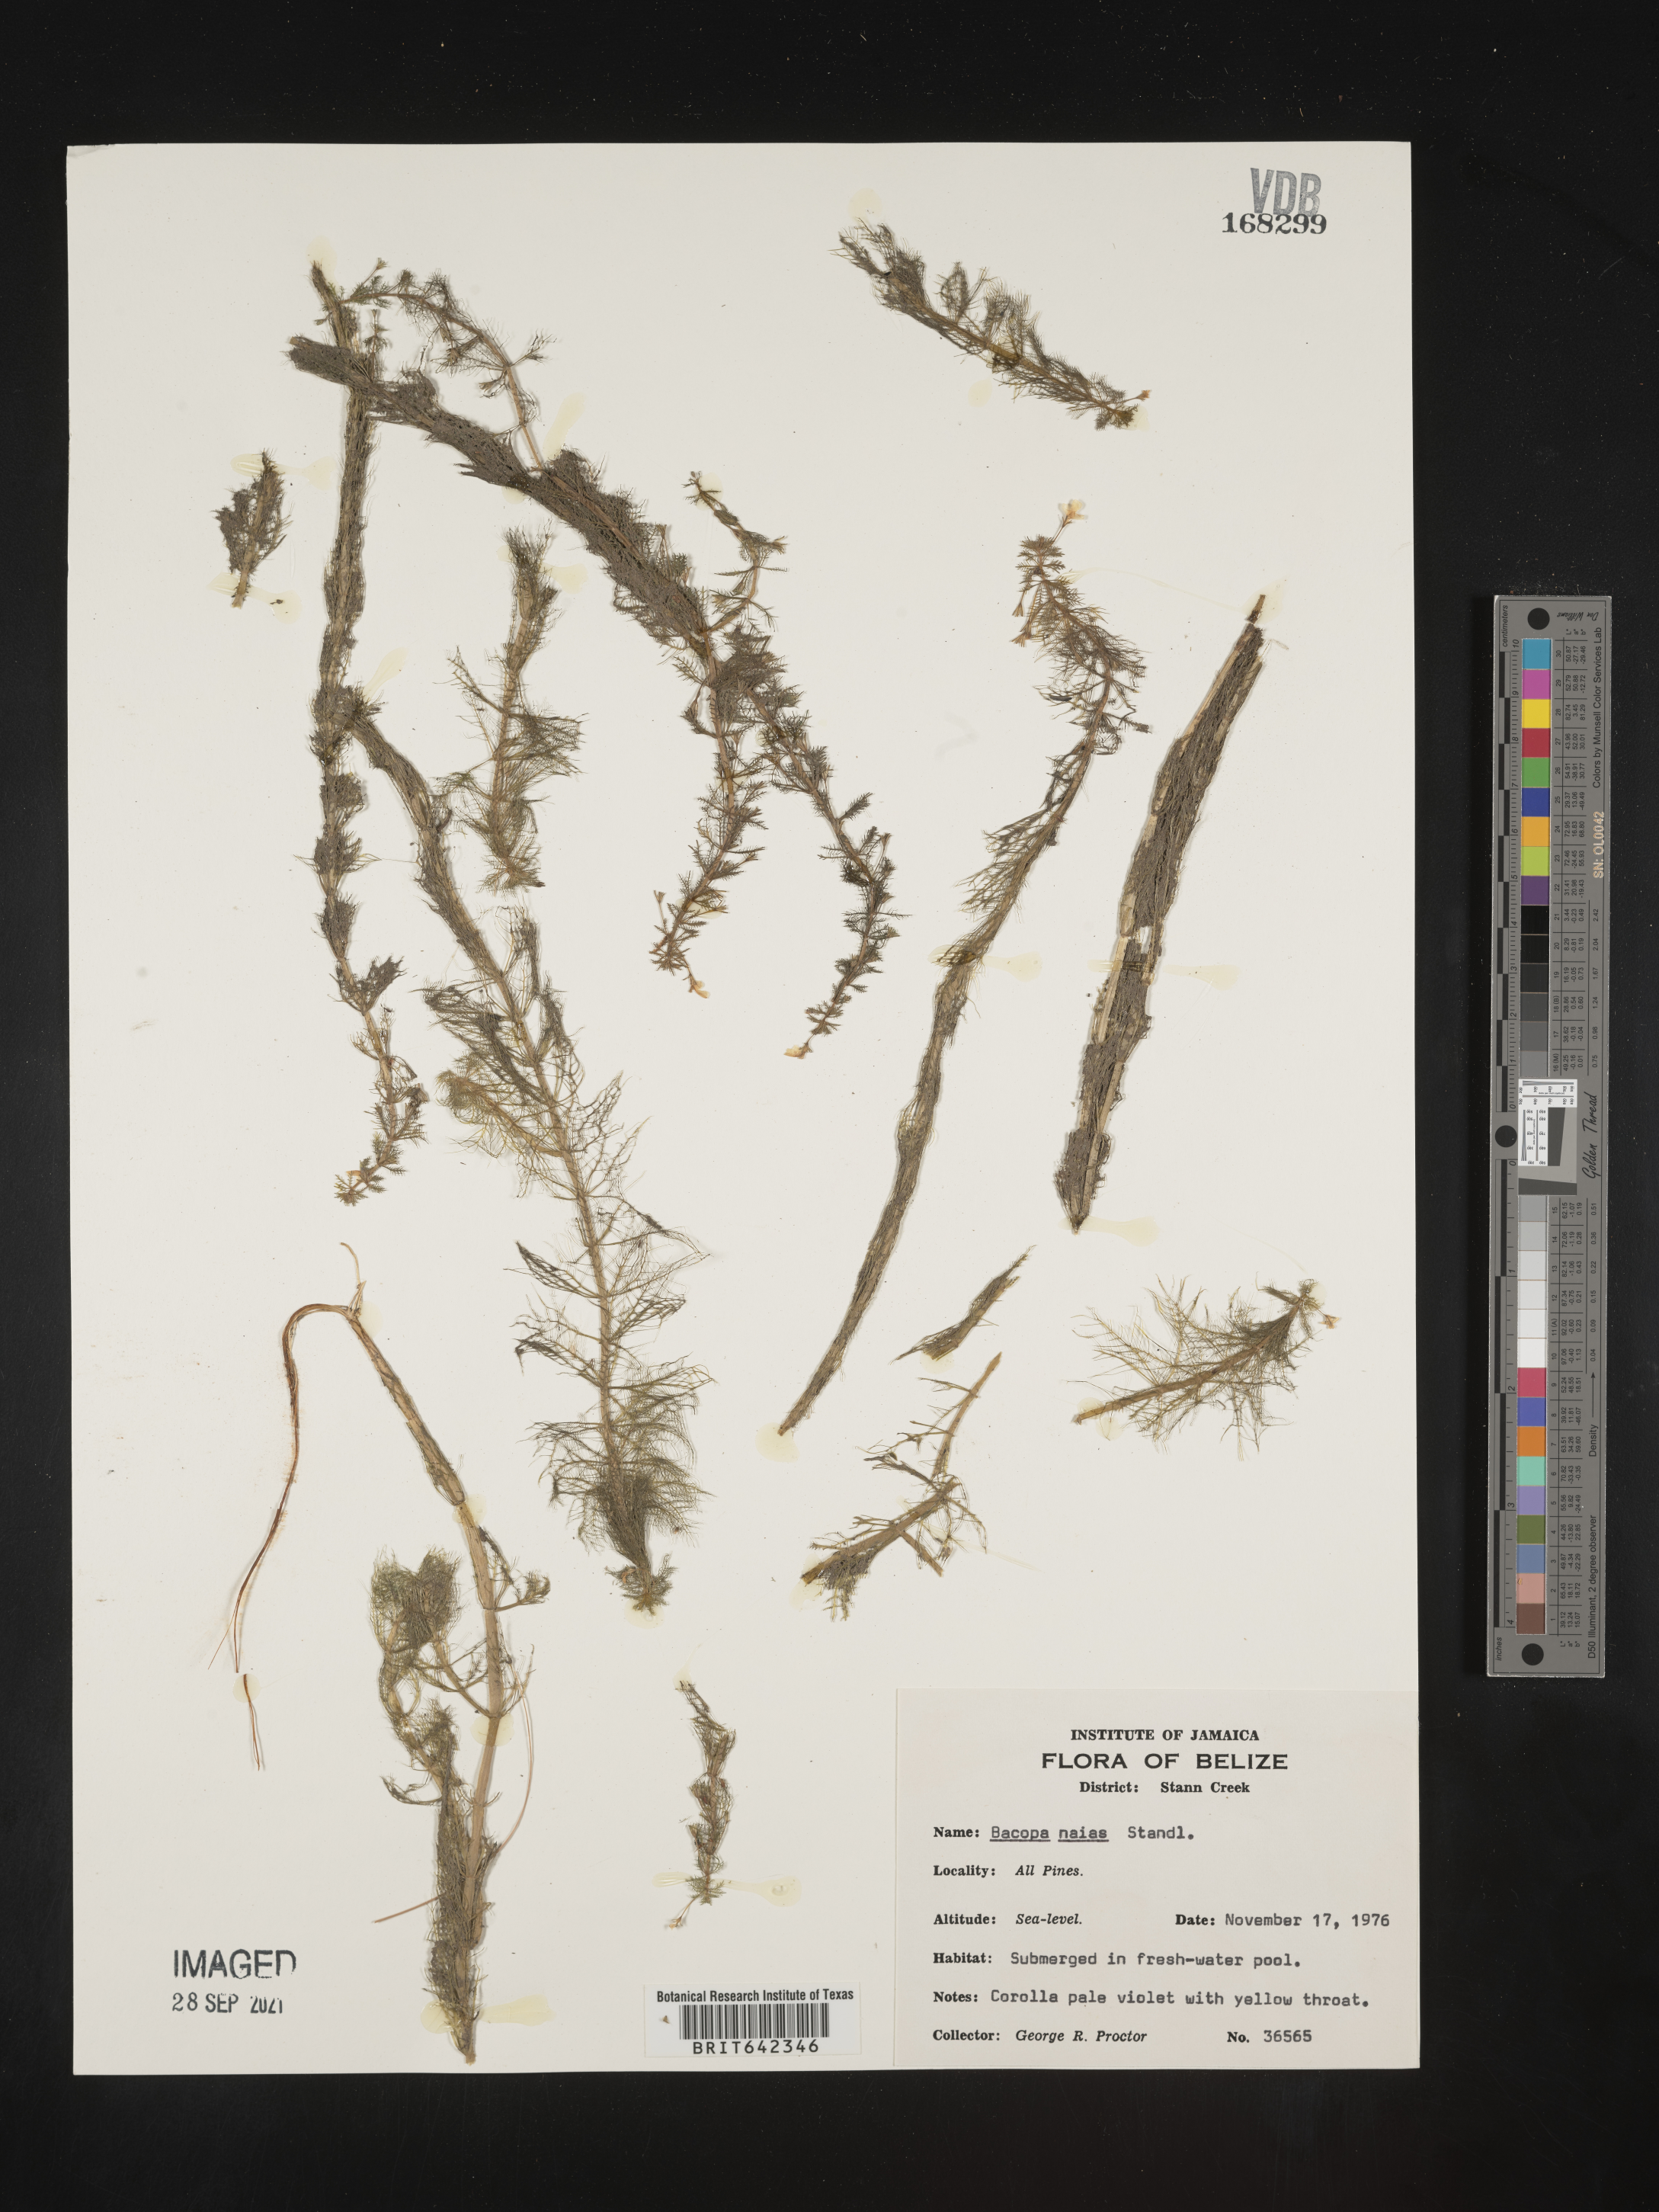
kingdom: Plantae
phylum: Tracheophyta
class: Magnoliopsida
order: Lamiales
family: Plantaginaceae
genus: Bacopa
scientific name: Bacopa
